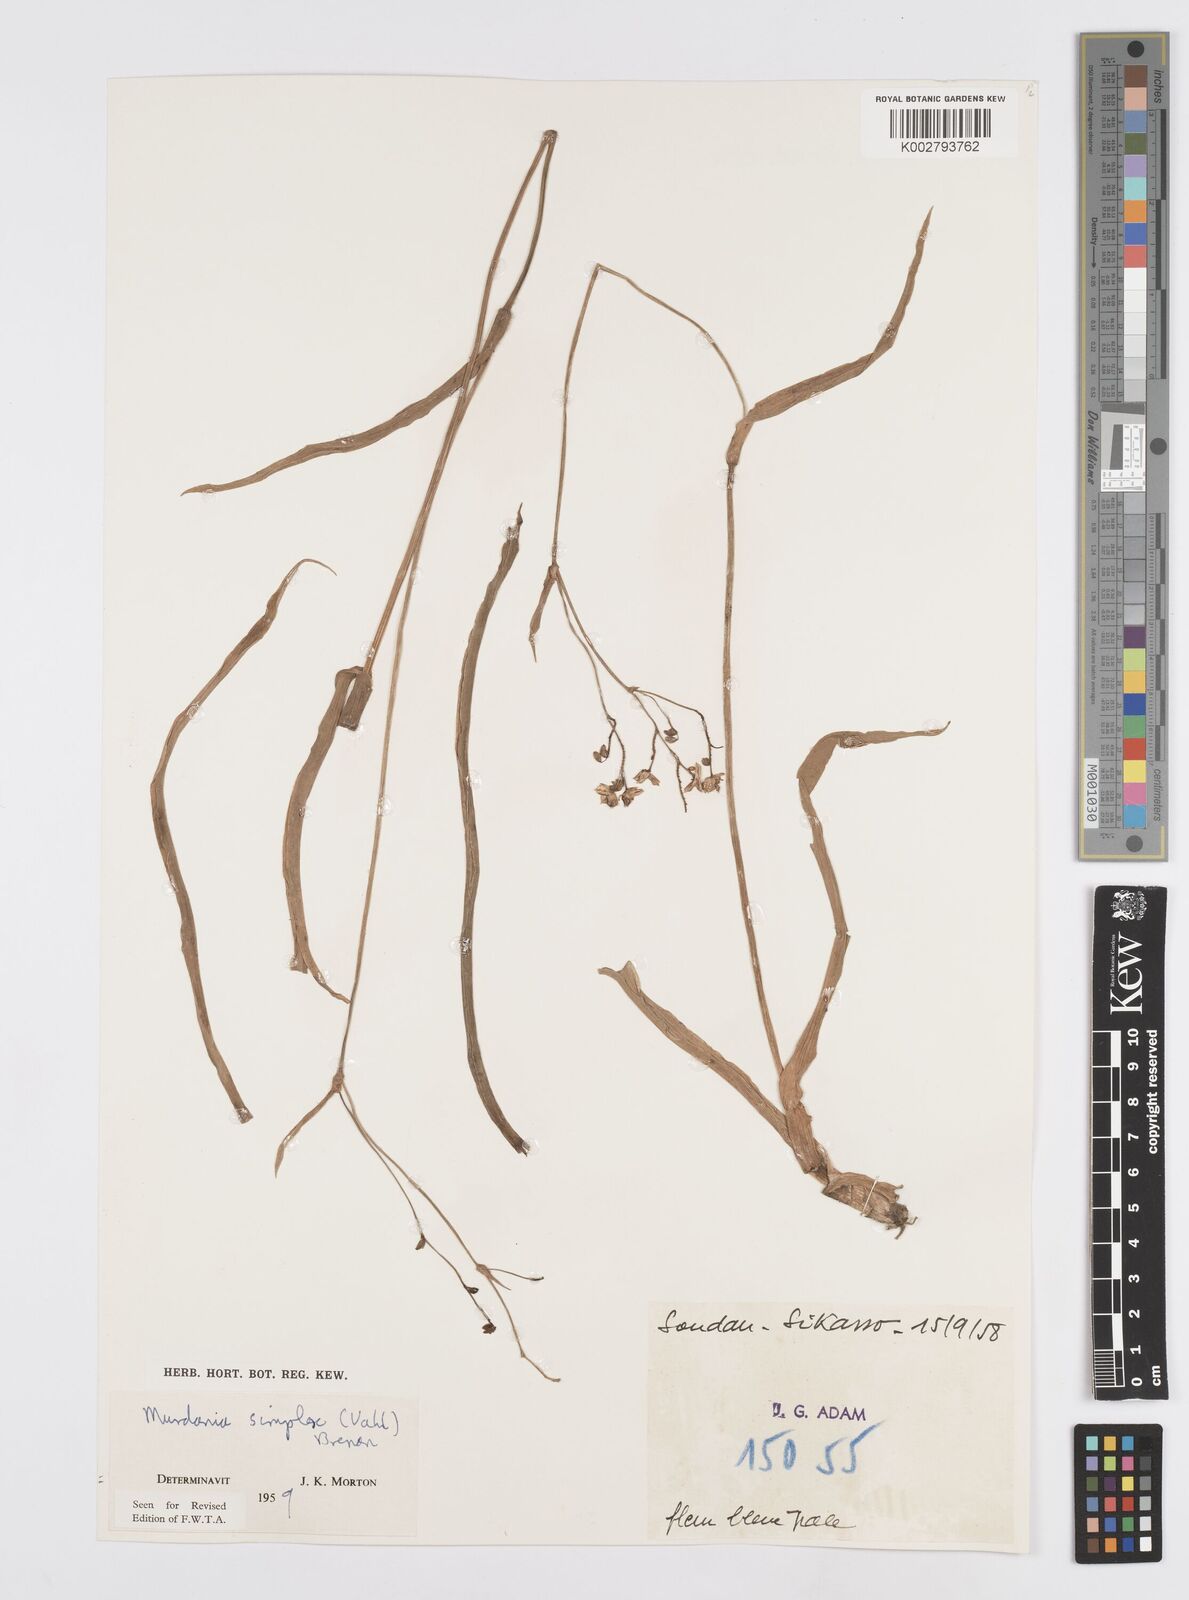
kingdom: Plantae
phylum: Tracheophyta
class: Liliopsida
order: Commelinales
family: Commelinaceae
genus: Murdannia
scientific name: Murdannia simplex
